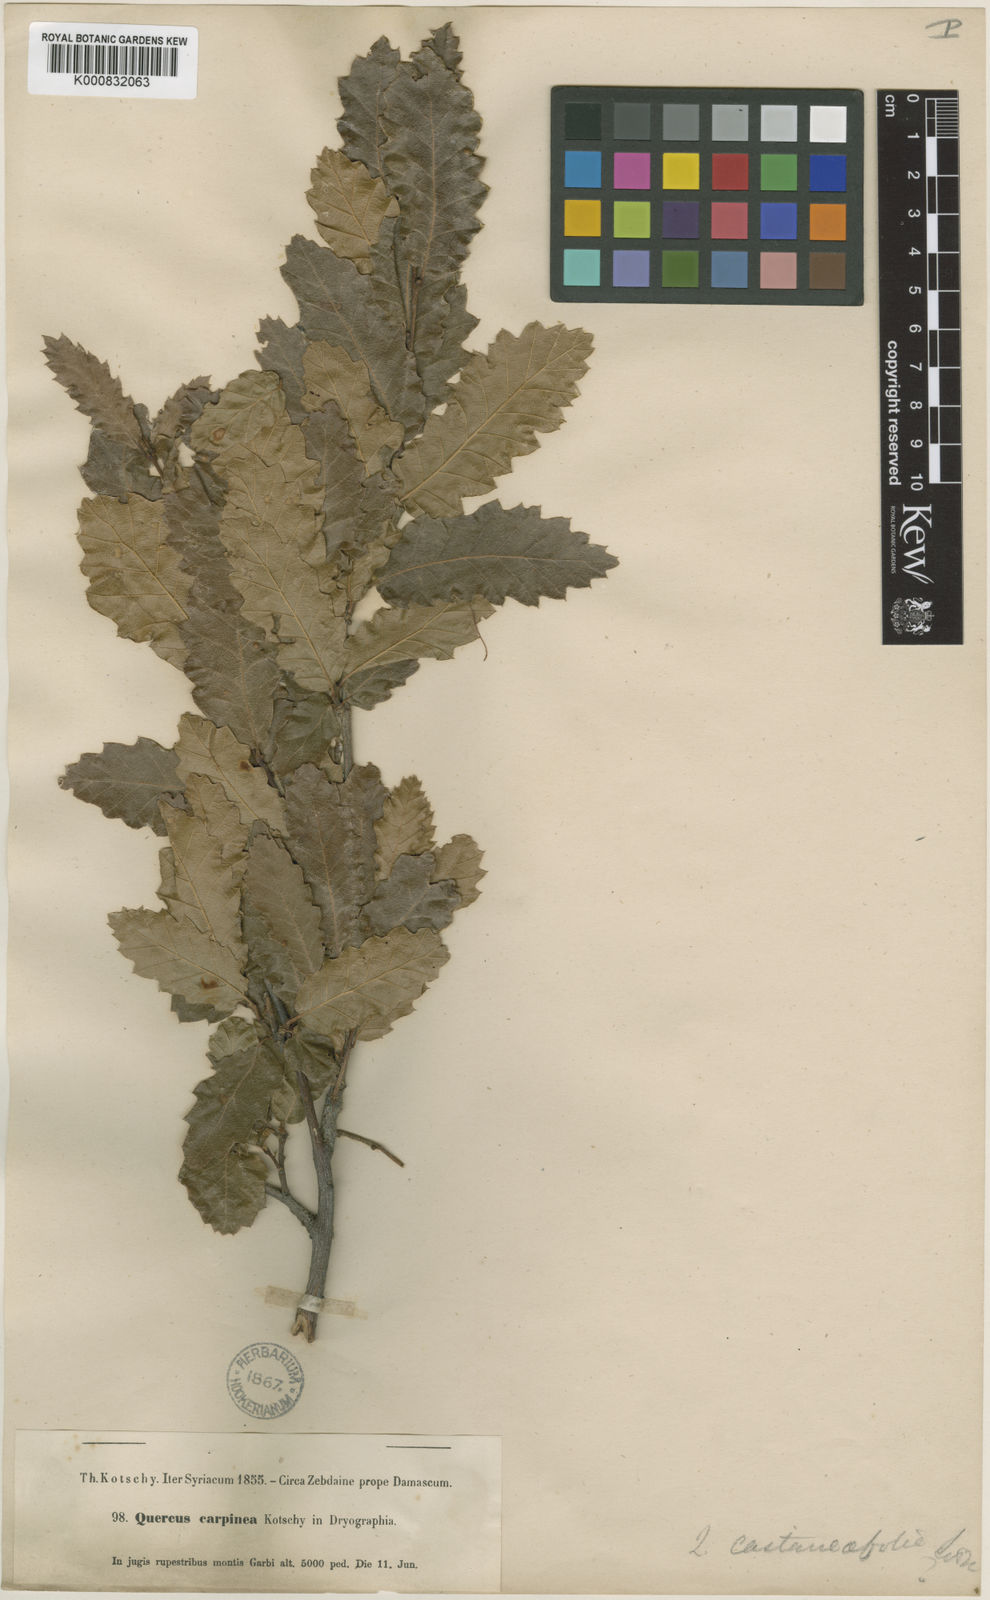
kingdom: Plantae
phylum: Tracheophyta
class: Magnoliopsida
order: Fagales
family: Fagaceae
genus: Quercus
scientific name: Quercus infectoria
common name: Aleppo oak
